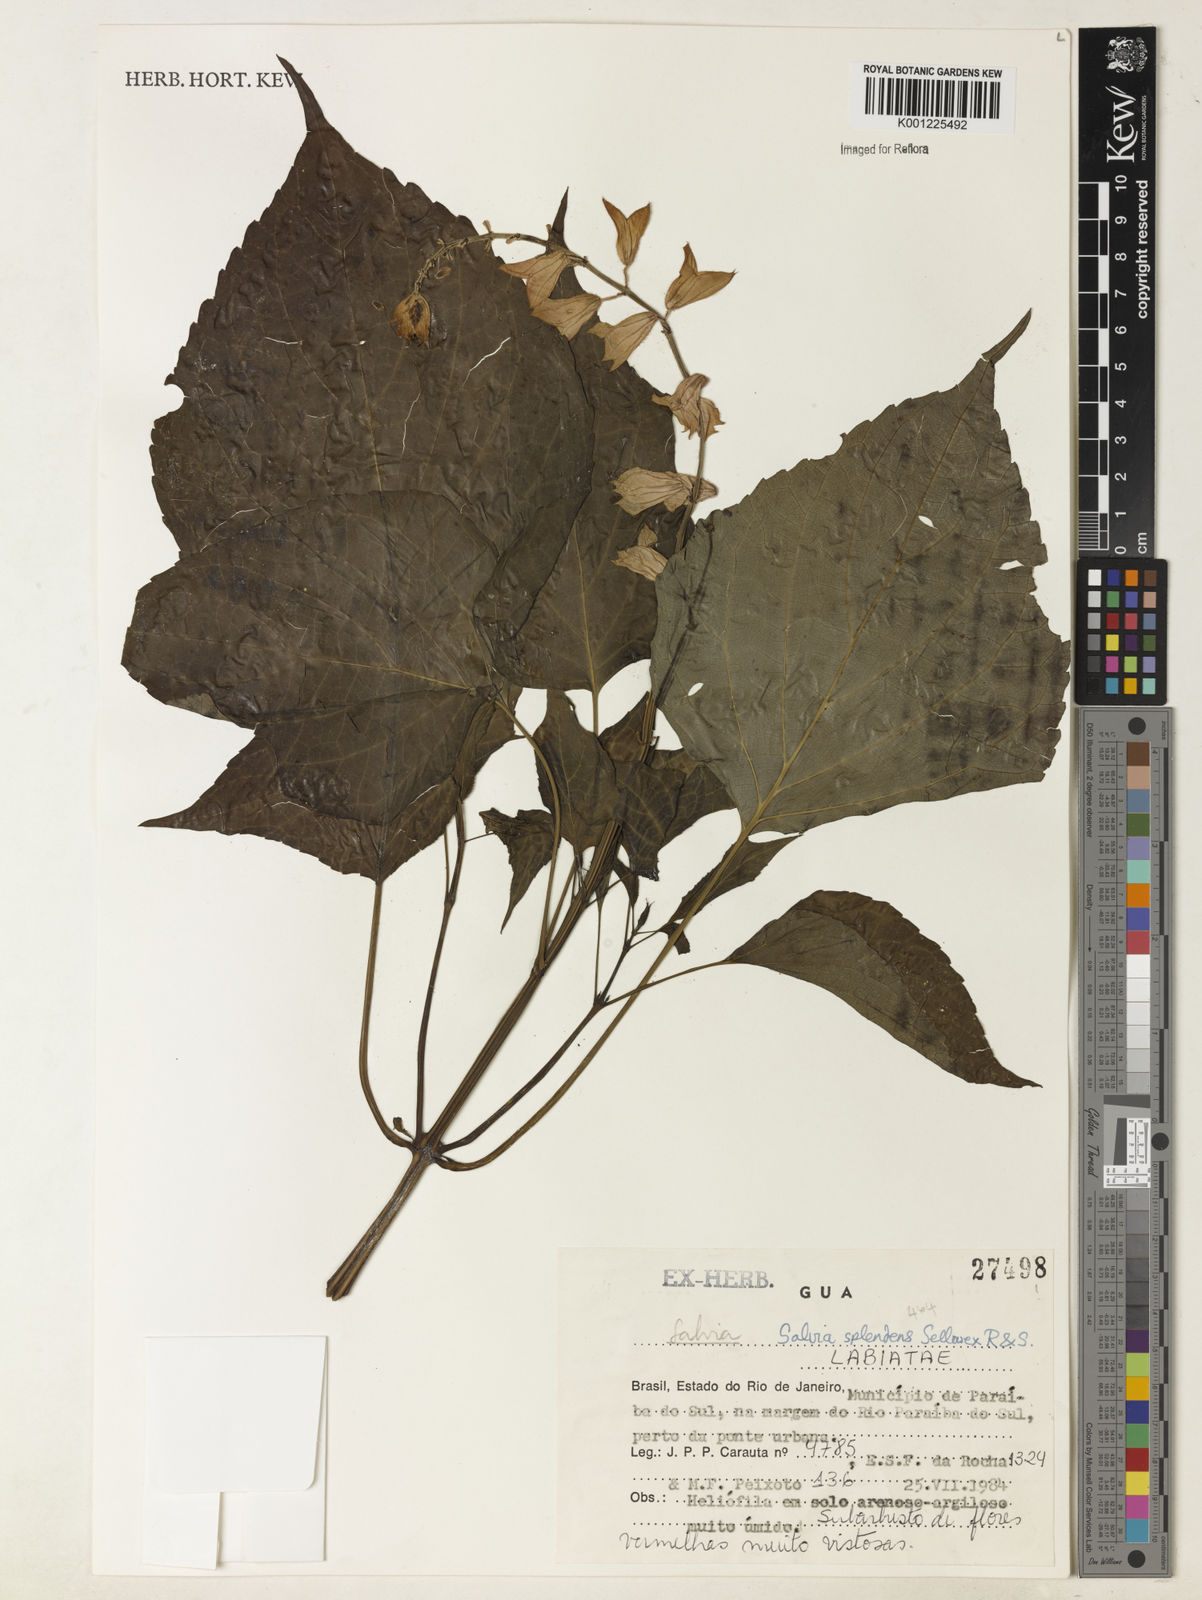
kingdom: Plantae
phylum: Tracheophyta
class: Magnoliopsida
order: Lamiales
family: Lamiaceae
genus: Salvia
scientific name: Salvia
